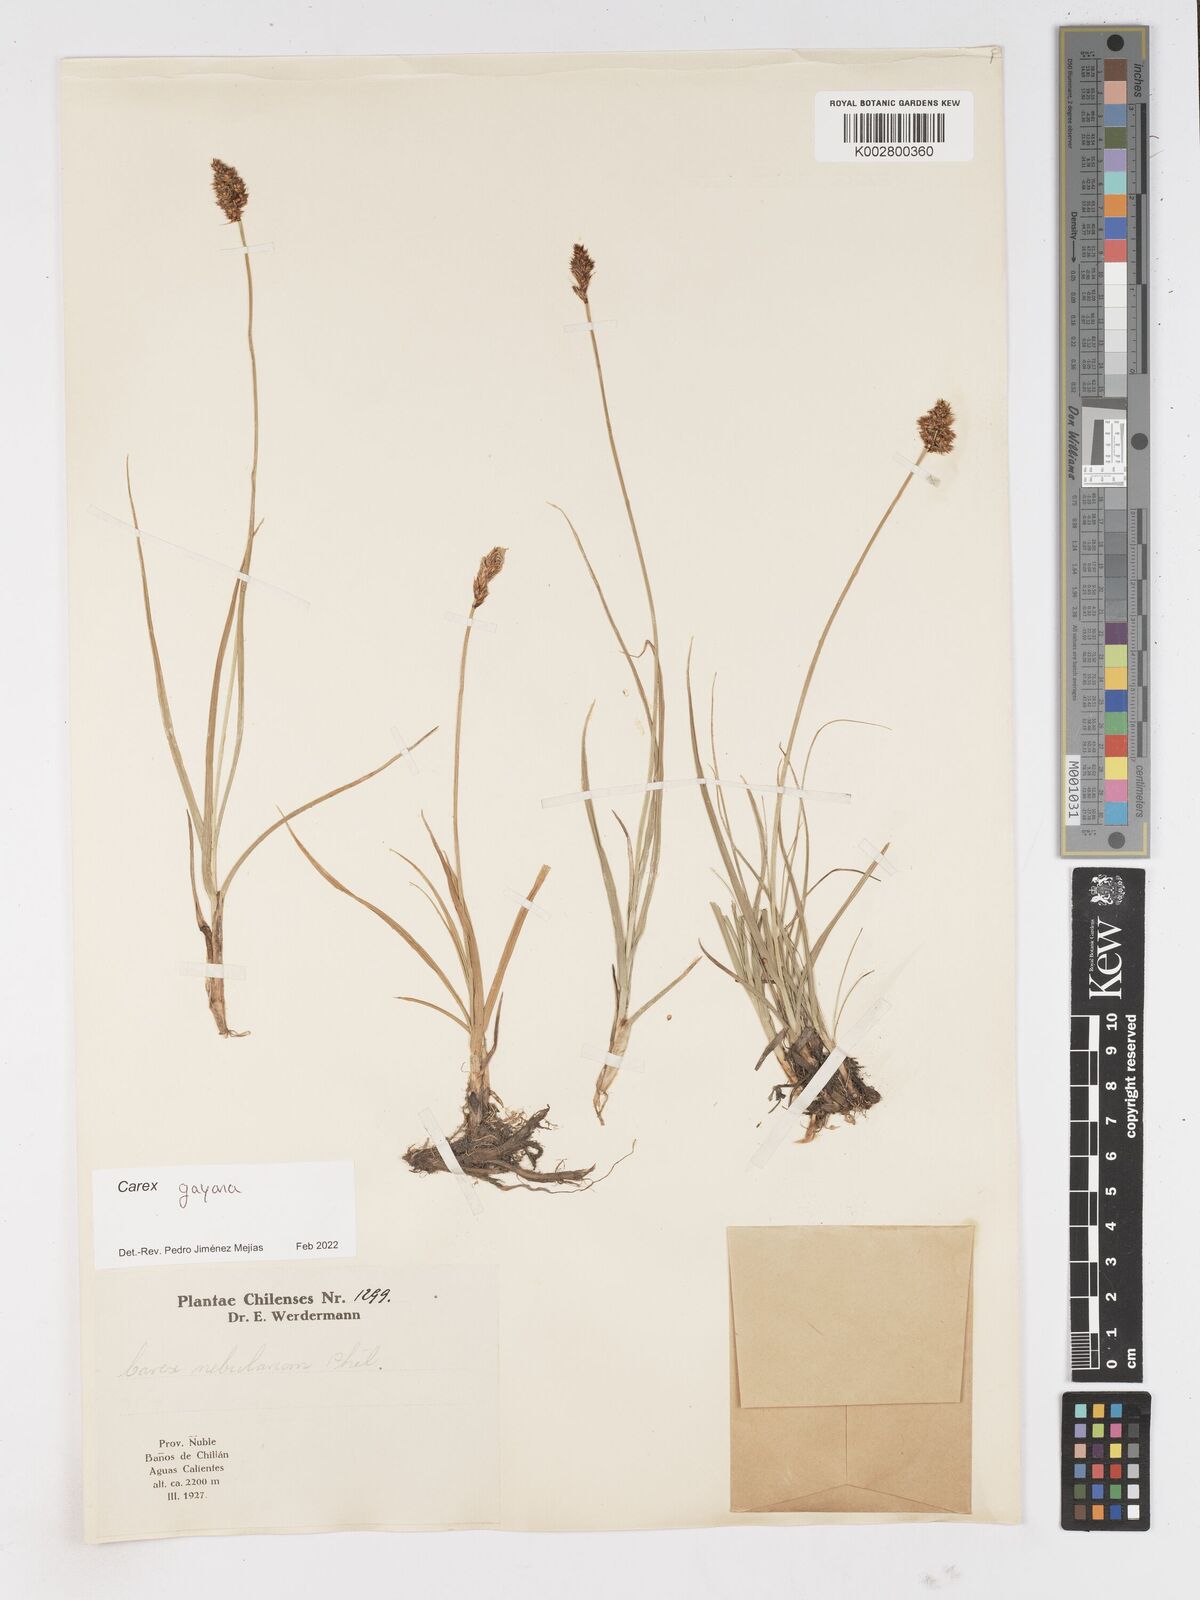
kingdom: Plantae
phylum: Tracheophyta
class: Liliopsida
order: Poales
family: Cyperaceae
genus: Carex
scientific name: Carex gayana
